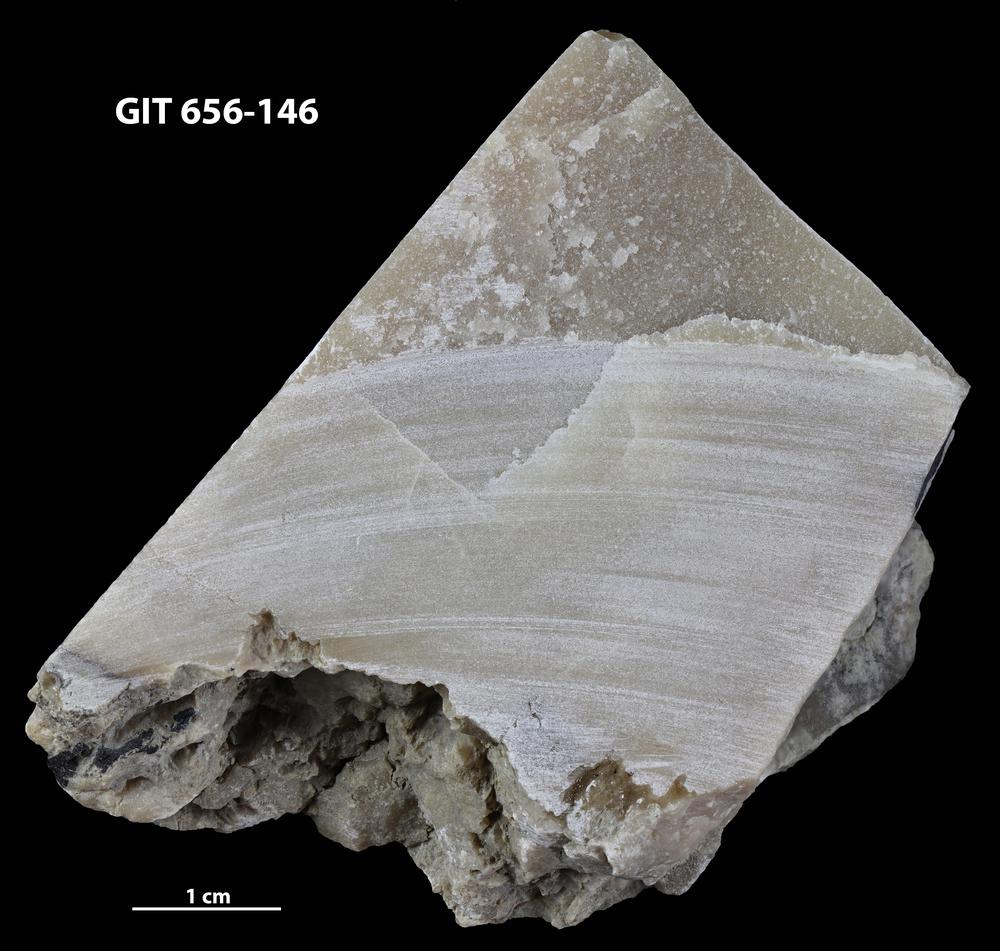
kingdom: Animalia
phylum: Porifera
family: Actinostromatidae
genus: Plectostroma
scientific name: Plectostroma
